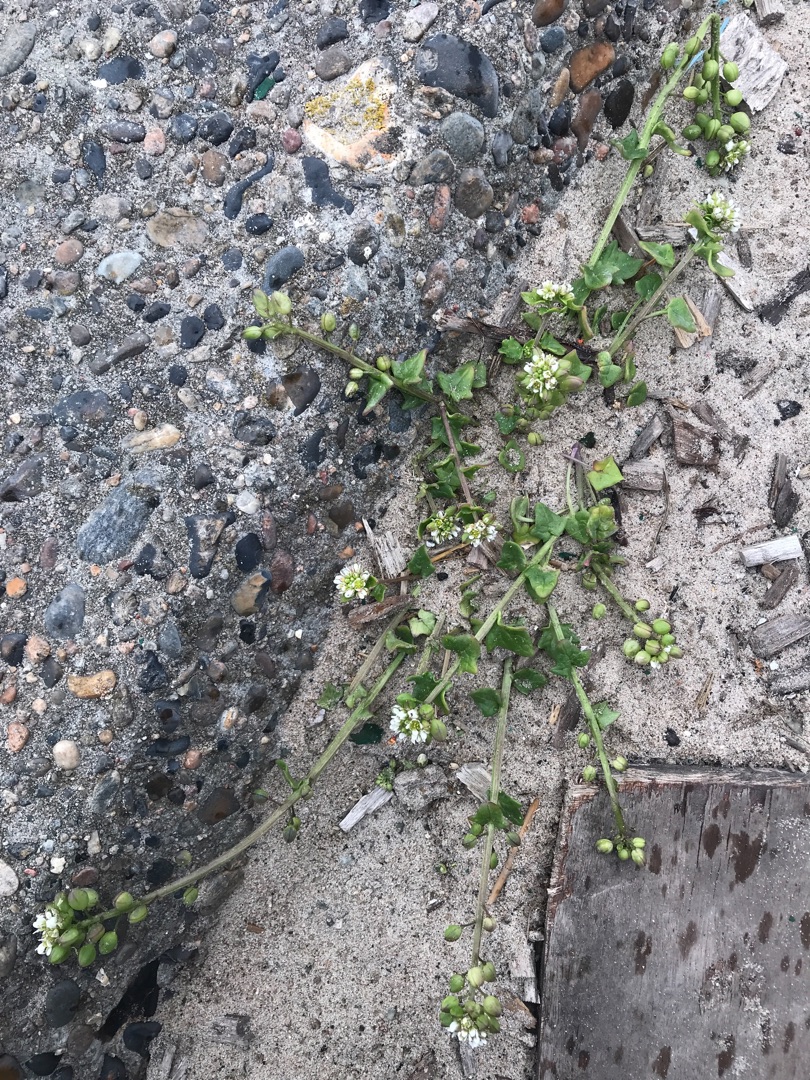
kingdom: Plantae
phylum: Tracheophyta
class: Magnoliopsida
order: Brassicales
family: Brassicaceae
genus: Cochlearia
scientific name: Cochlearia danica
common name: Dansk kokleare
